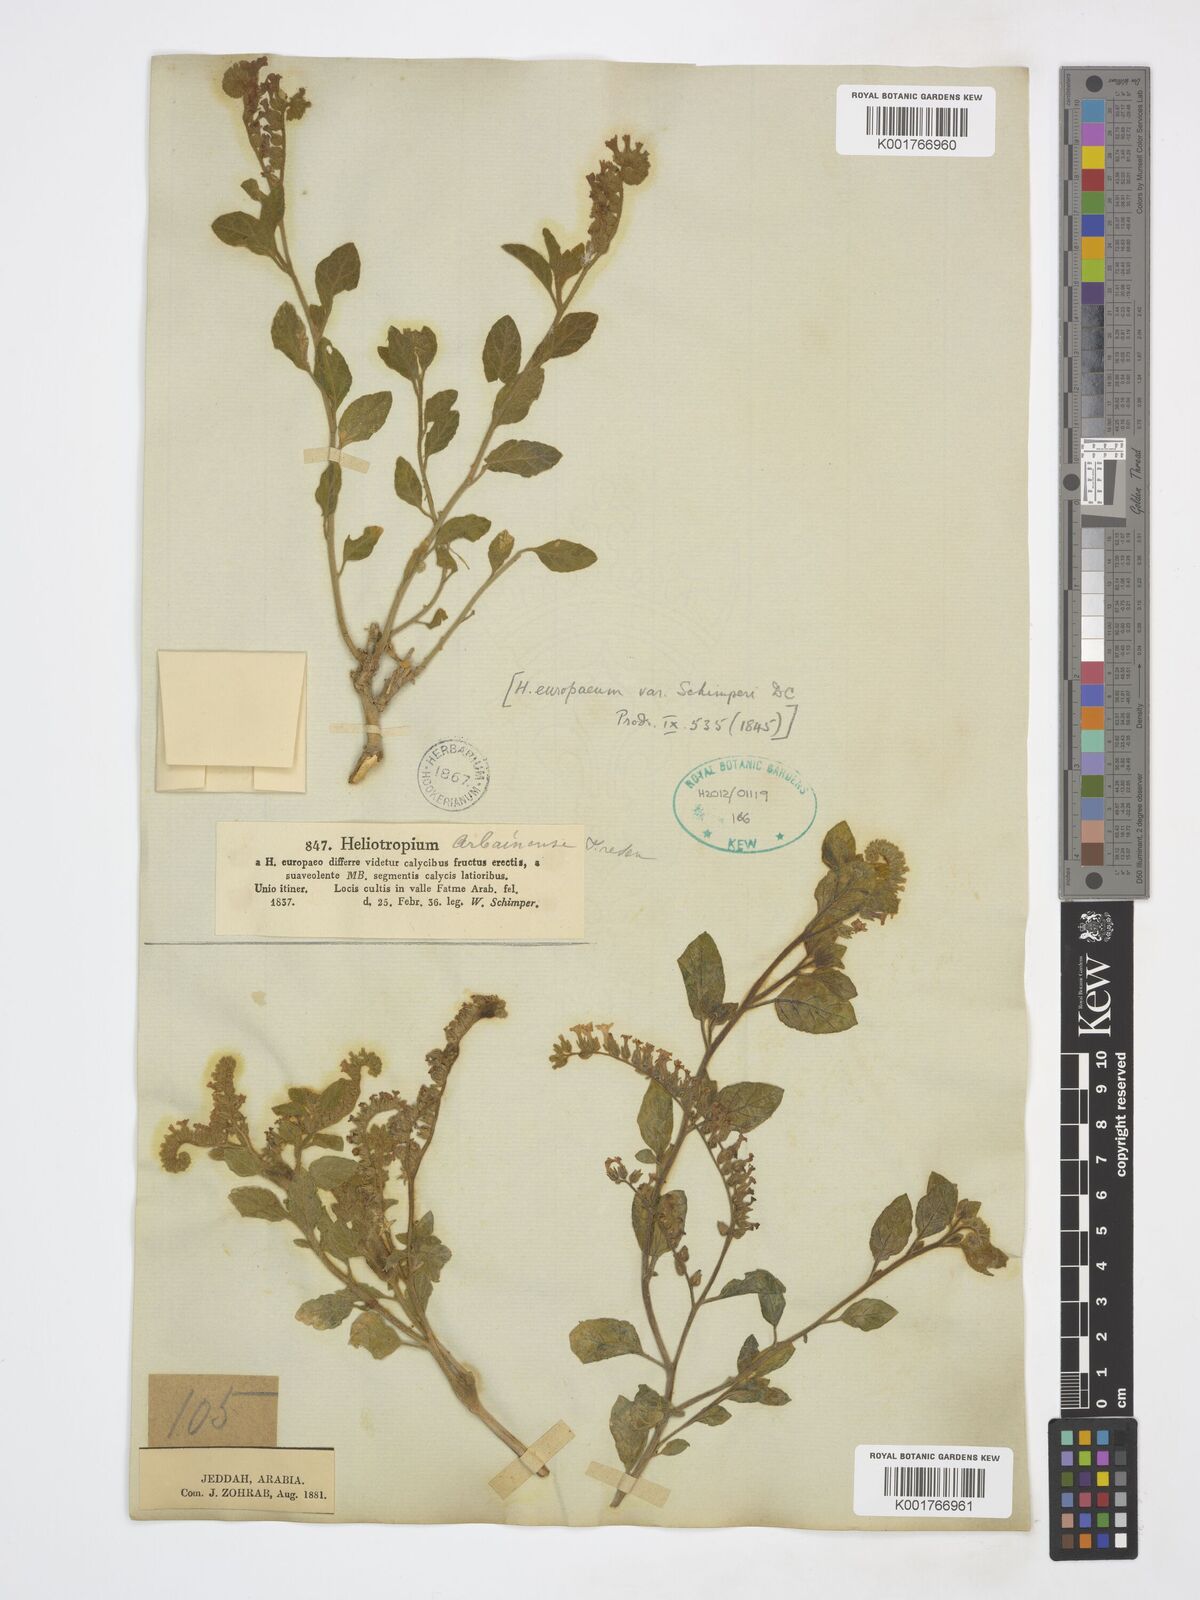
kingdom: Plantae
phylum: Tracheophyta
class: Magnoliopsida
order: Boraginales
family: Heliotropiaceae
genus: Heliotropium
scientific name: Heliotropium europaeum
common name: European heliotrope
